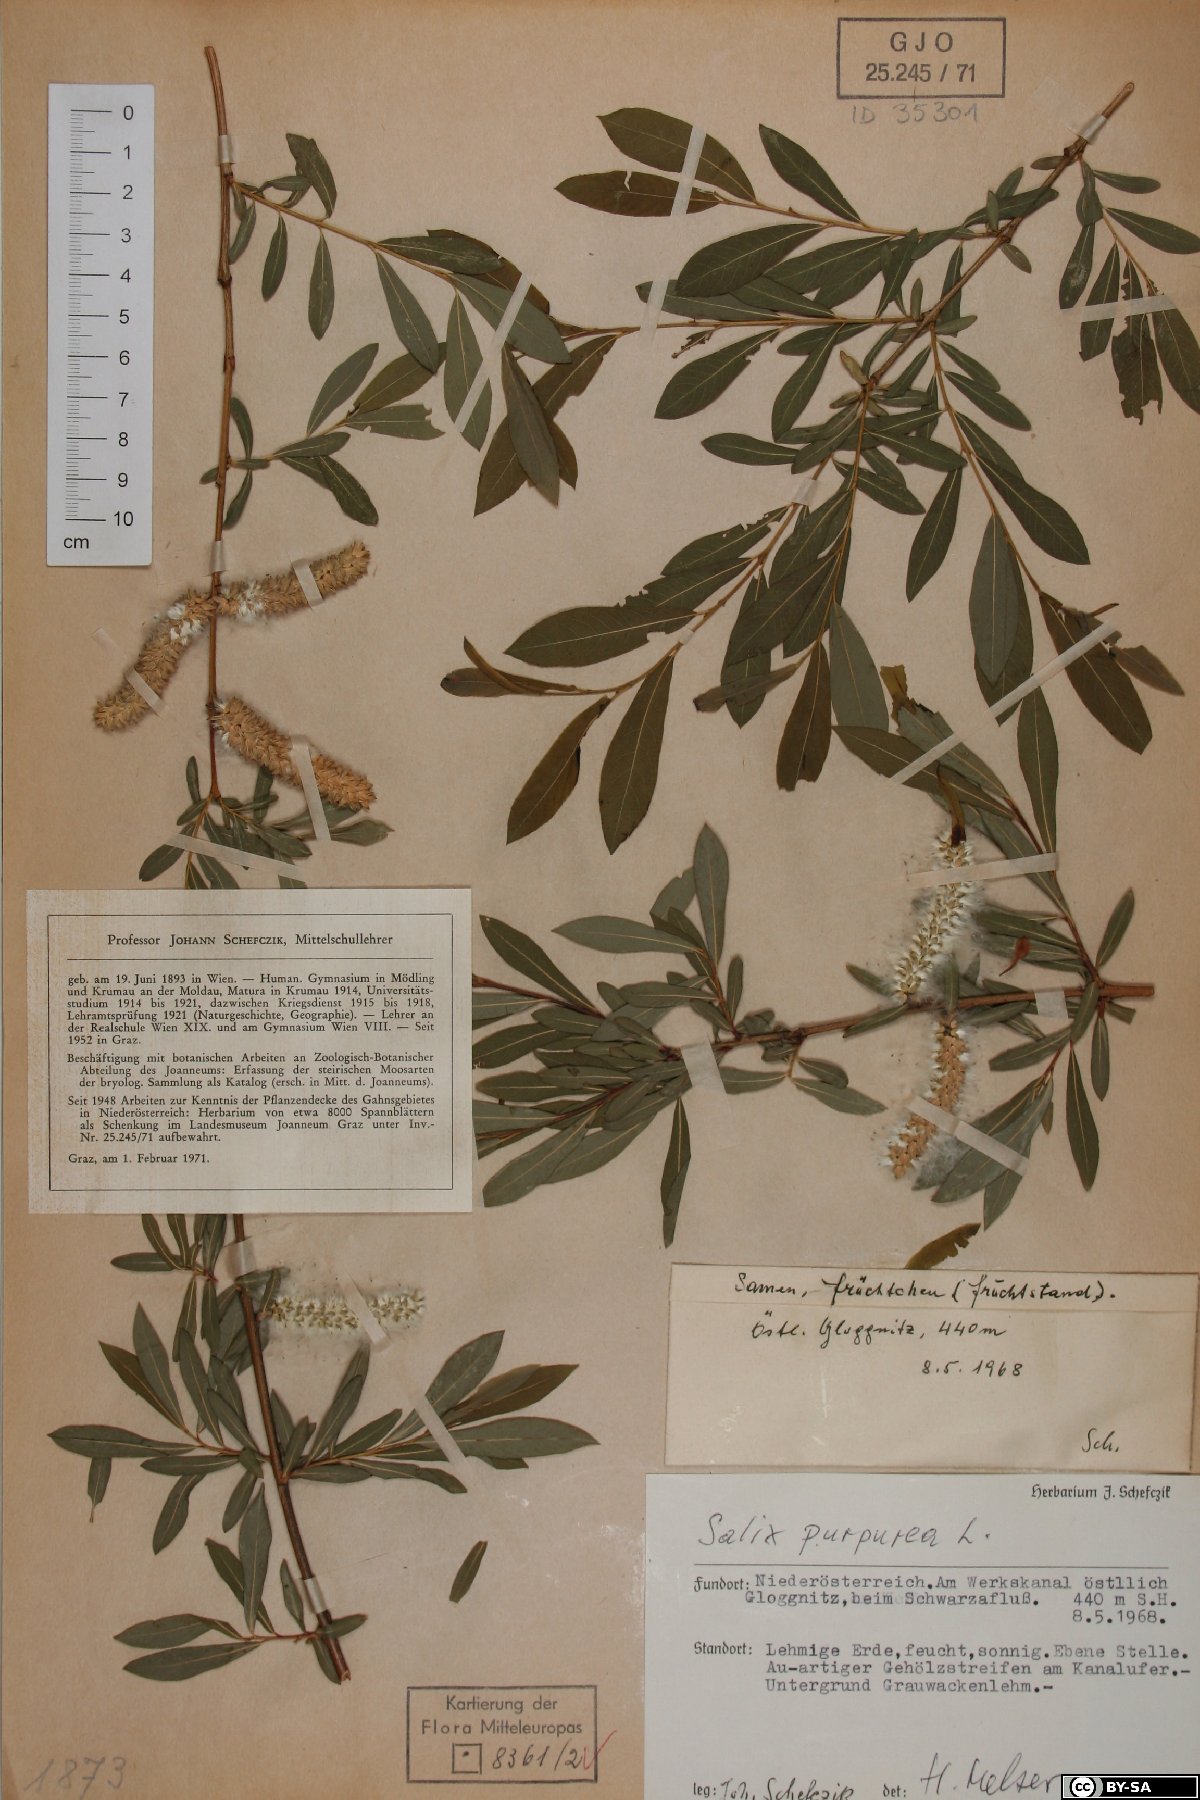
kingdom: Plantae
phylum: Tracheophyta
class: Magnoliopsida
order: Malpighiales
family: Salicaceae
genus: Salix
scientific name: Salix purpurea
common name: Purple willow
